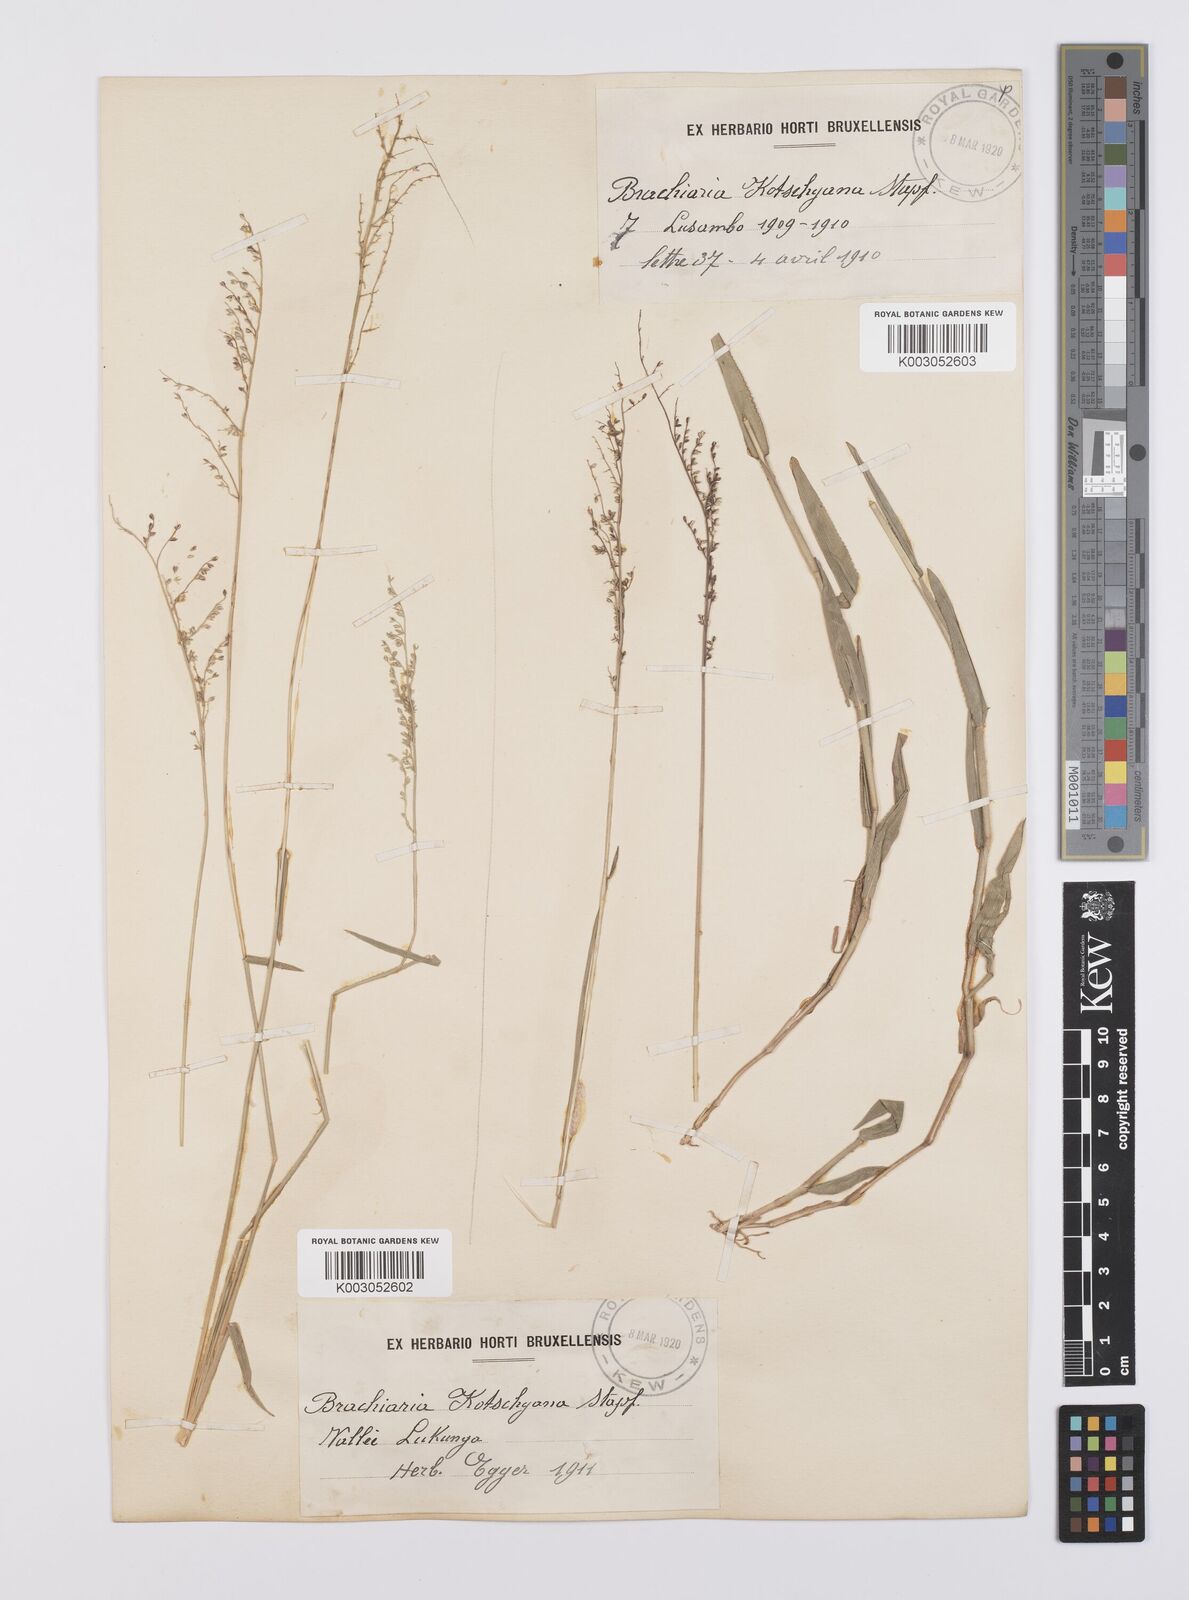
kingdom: Plantae
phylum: Tracheophyta
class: Liliopsida
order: Poales
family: Poaceae
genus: Urochloa
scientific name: Urochloa comata
